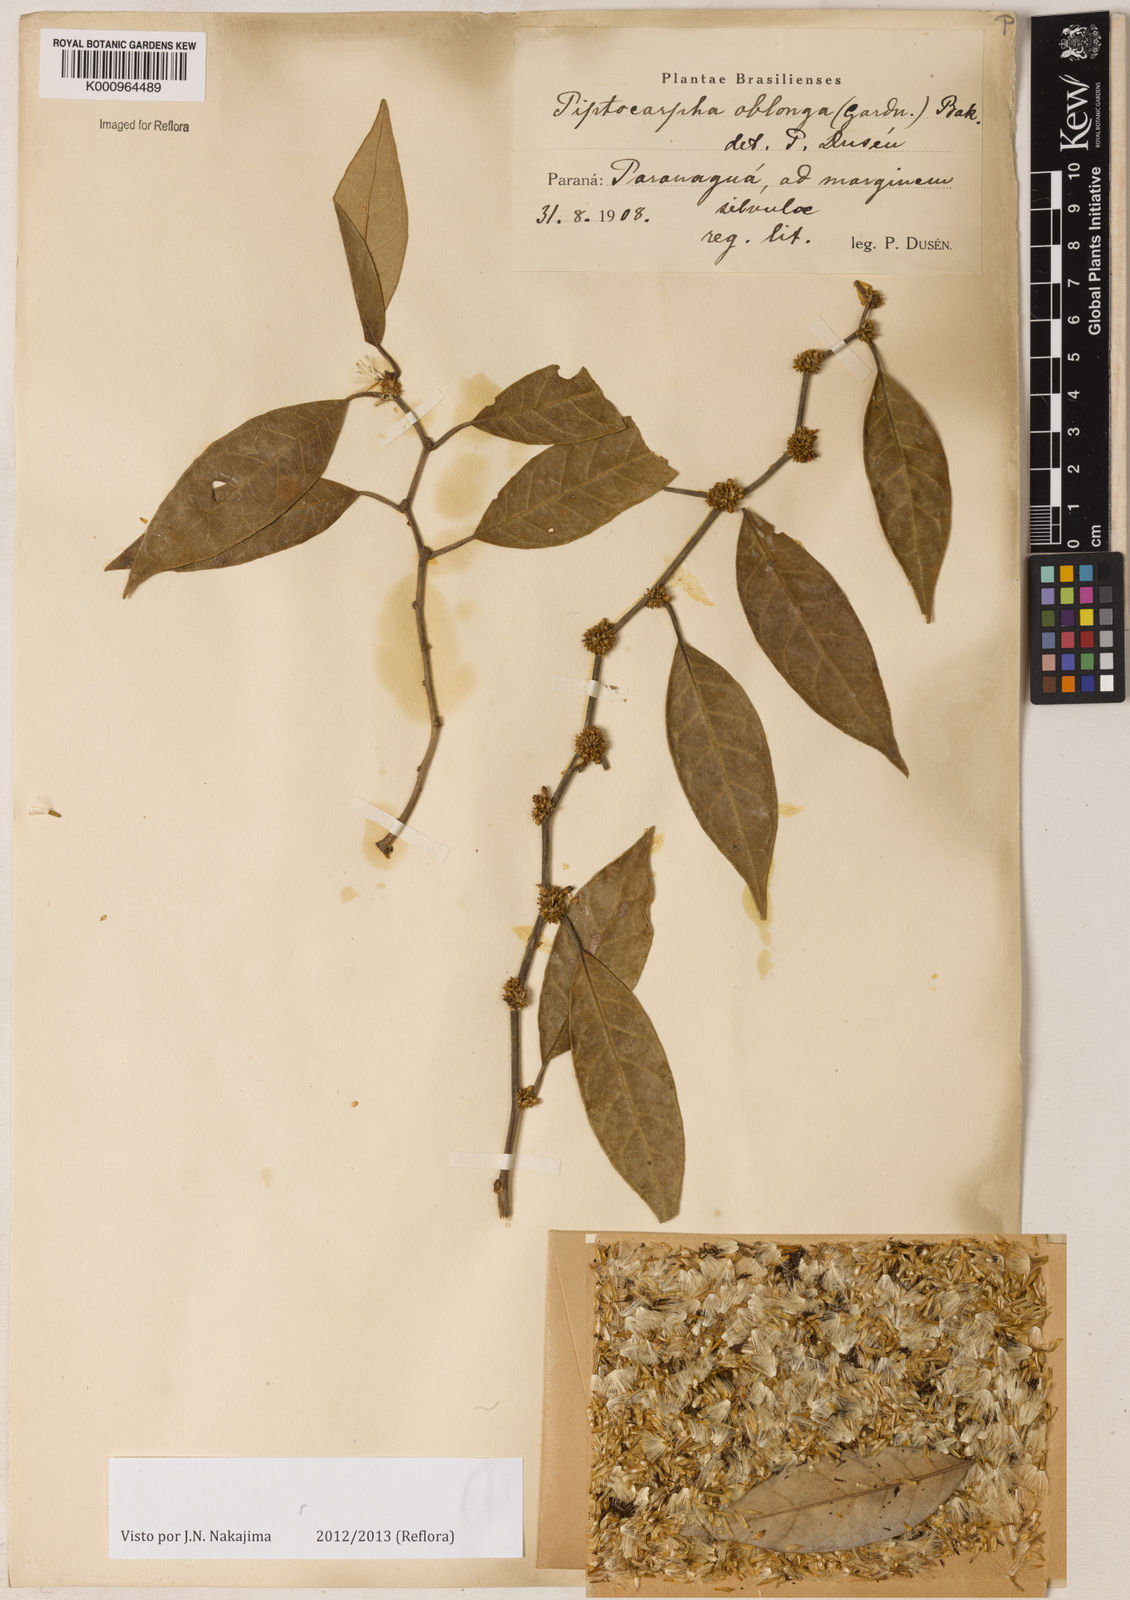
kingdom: Plantae
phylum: Tracheophyta
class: Magnoliopsida
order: Asterales
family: Asteraceae
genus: Piptocarpha
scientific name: Piptocarpha oblonga
